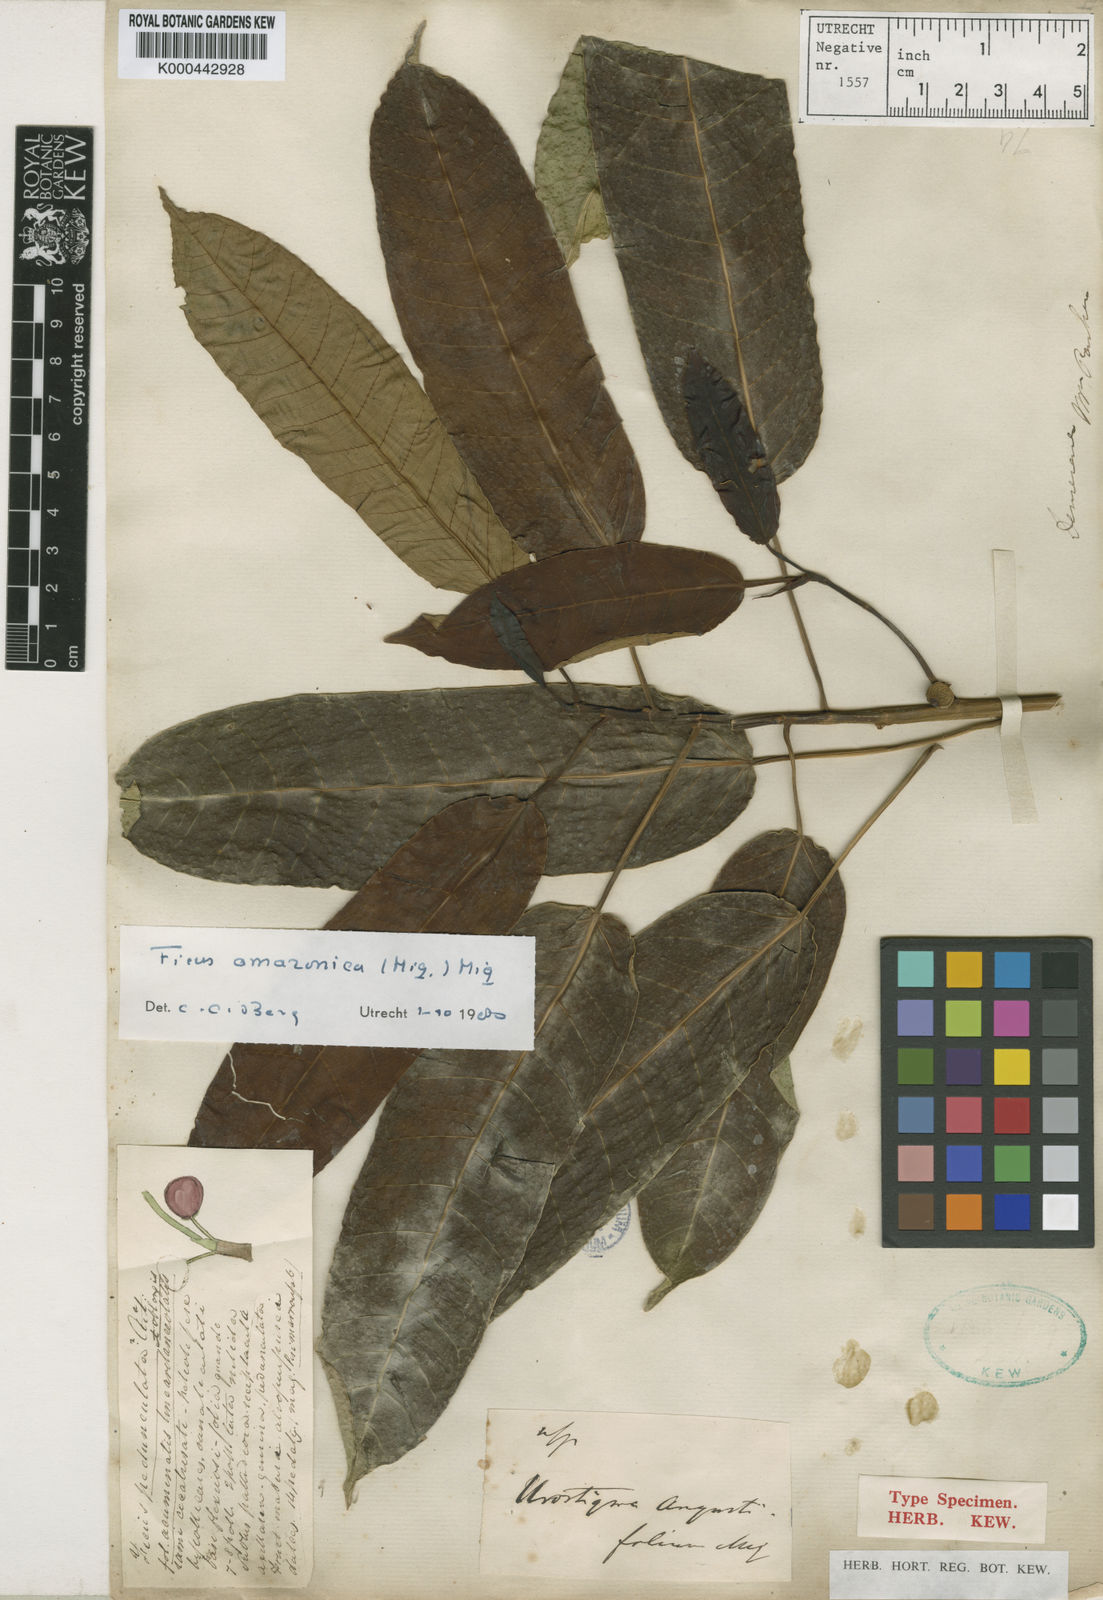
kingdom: Plantae
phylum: Tracheophyta
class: Magnoliopsida
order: Rosales
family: Moraceae
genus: Ficus
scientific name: Ficus amazonica
